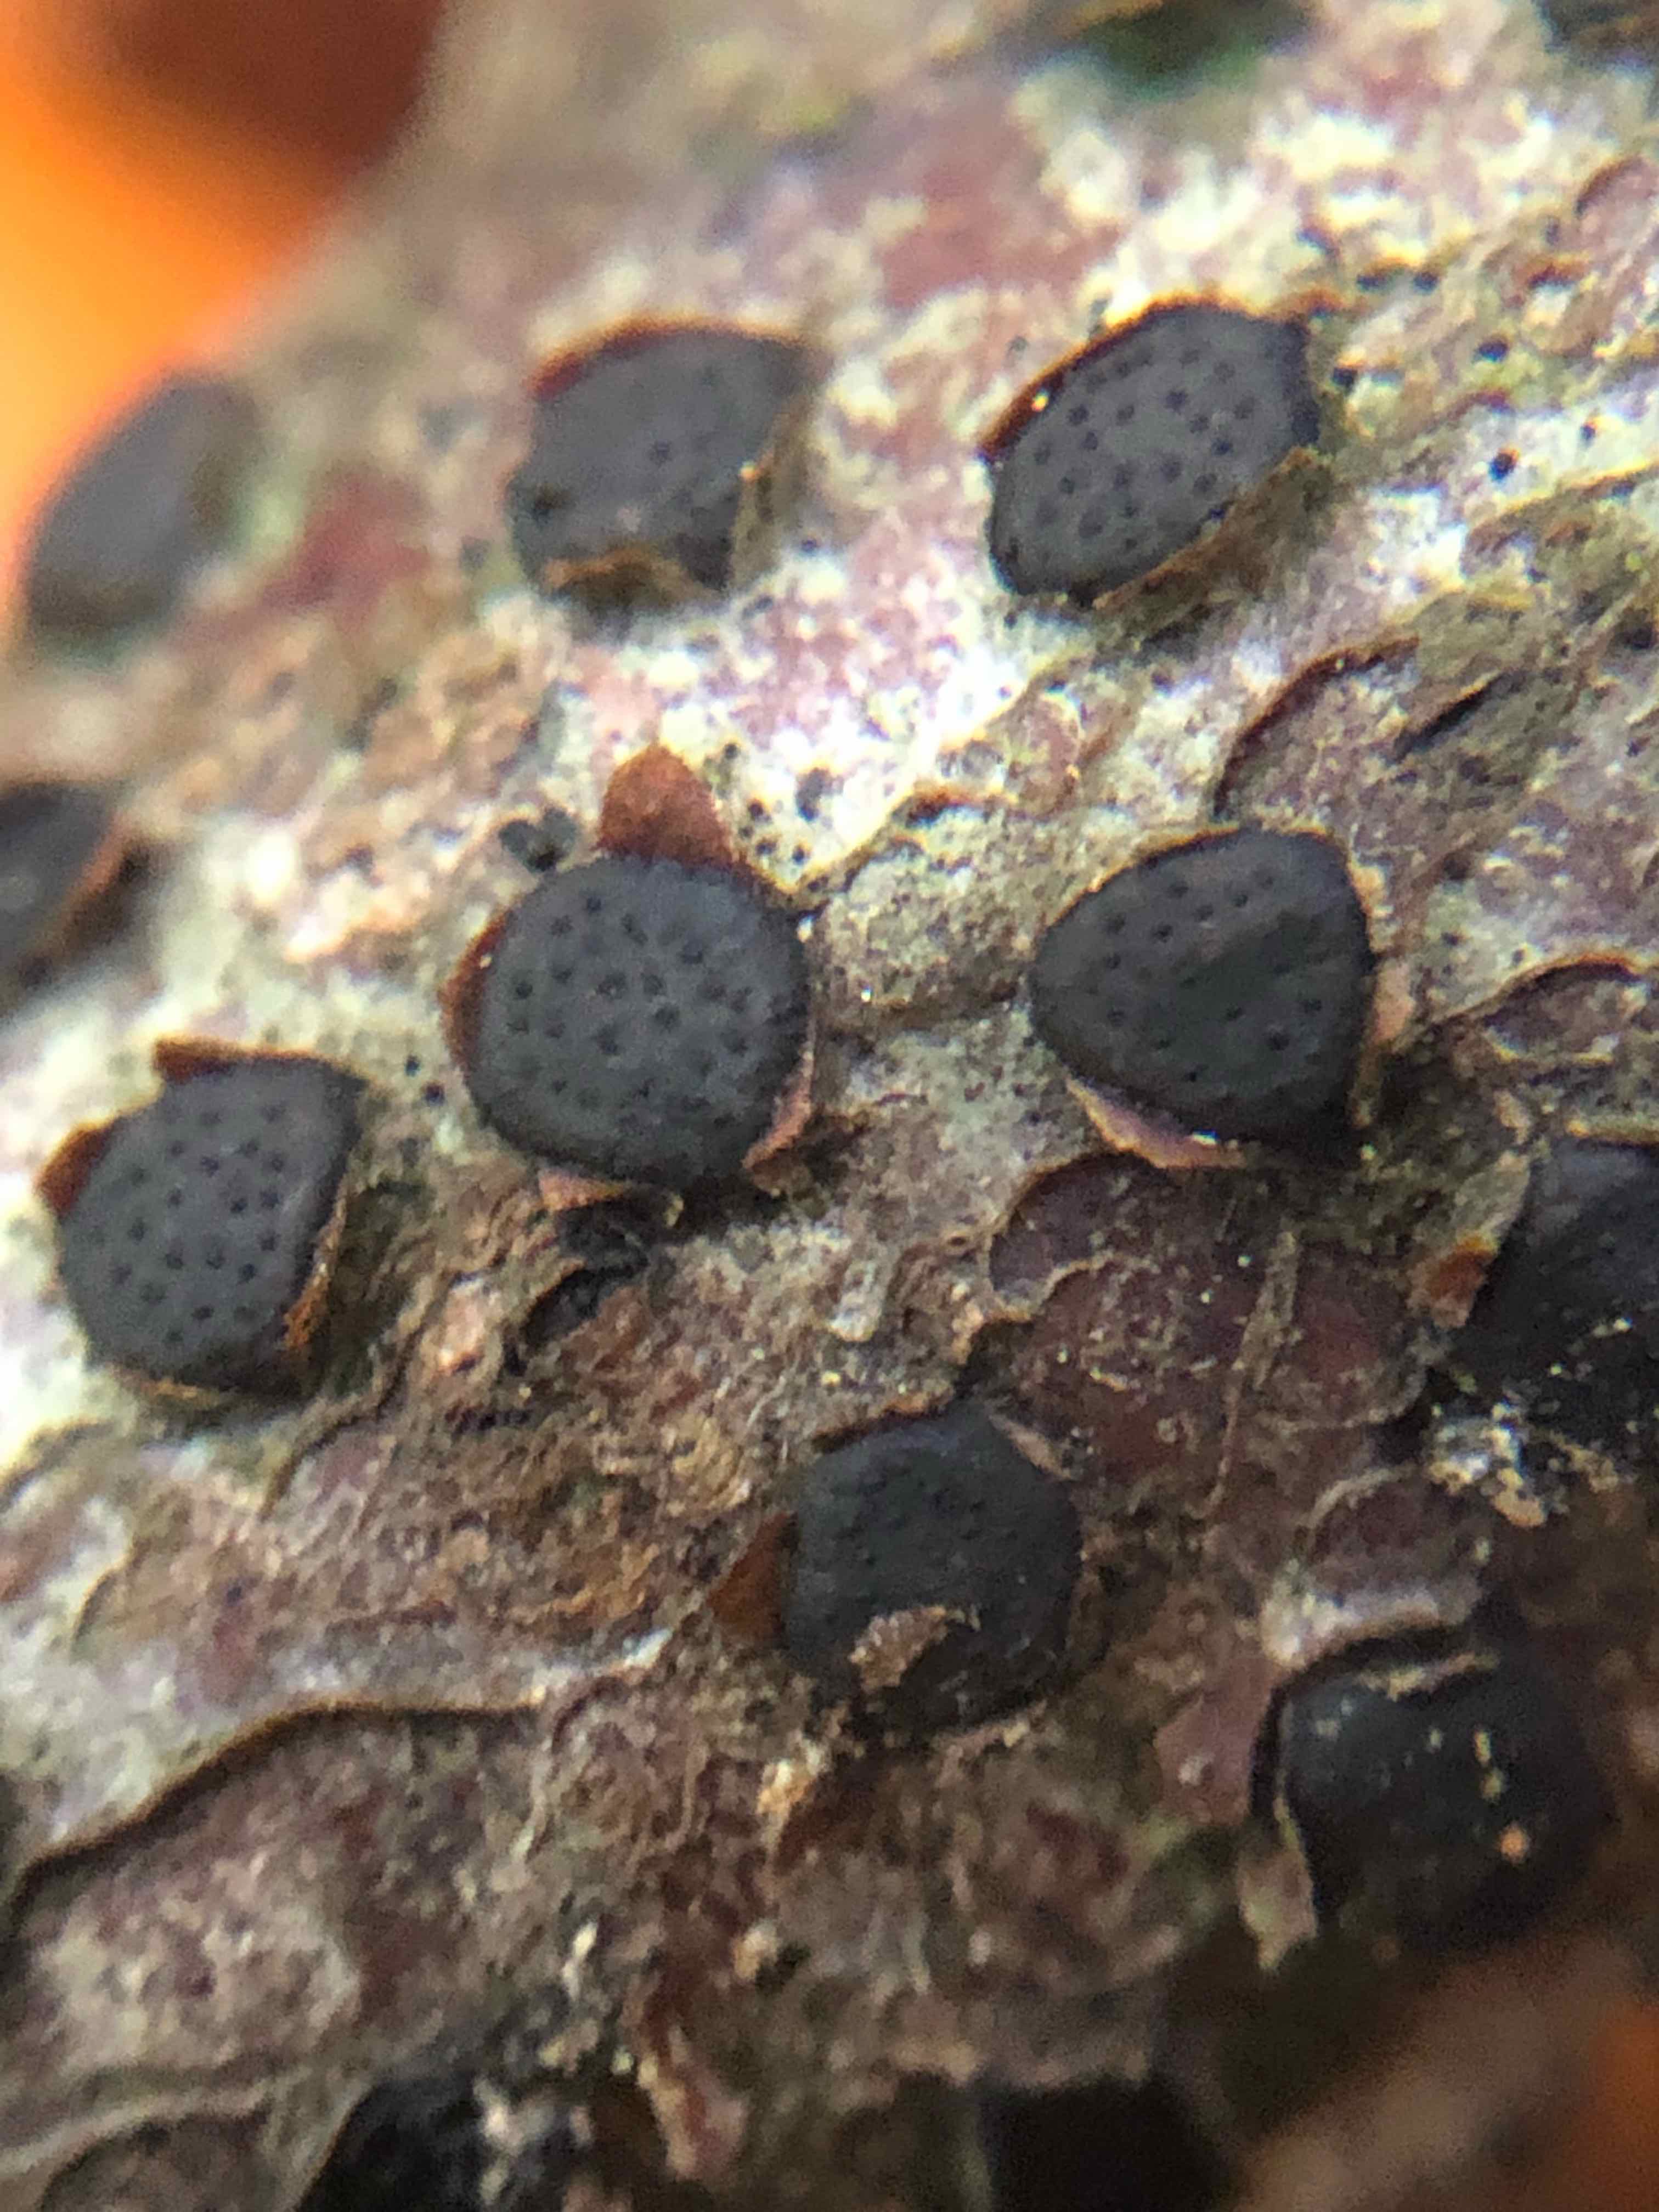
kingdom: Fungi
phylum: Ascomycota
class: Sordariomycetes
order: Xylariales
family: Diatrypaceae
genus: Diatrype
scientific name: Diatrype disciformis
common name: kant-kulskorpe
